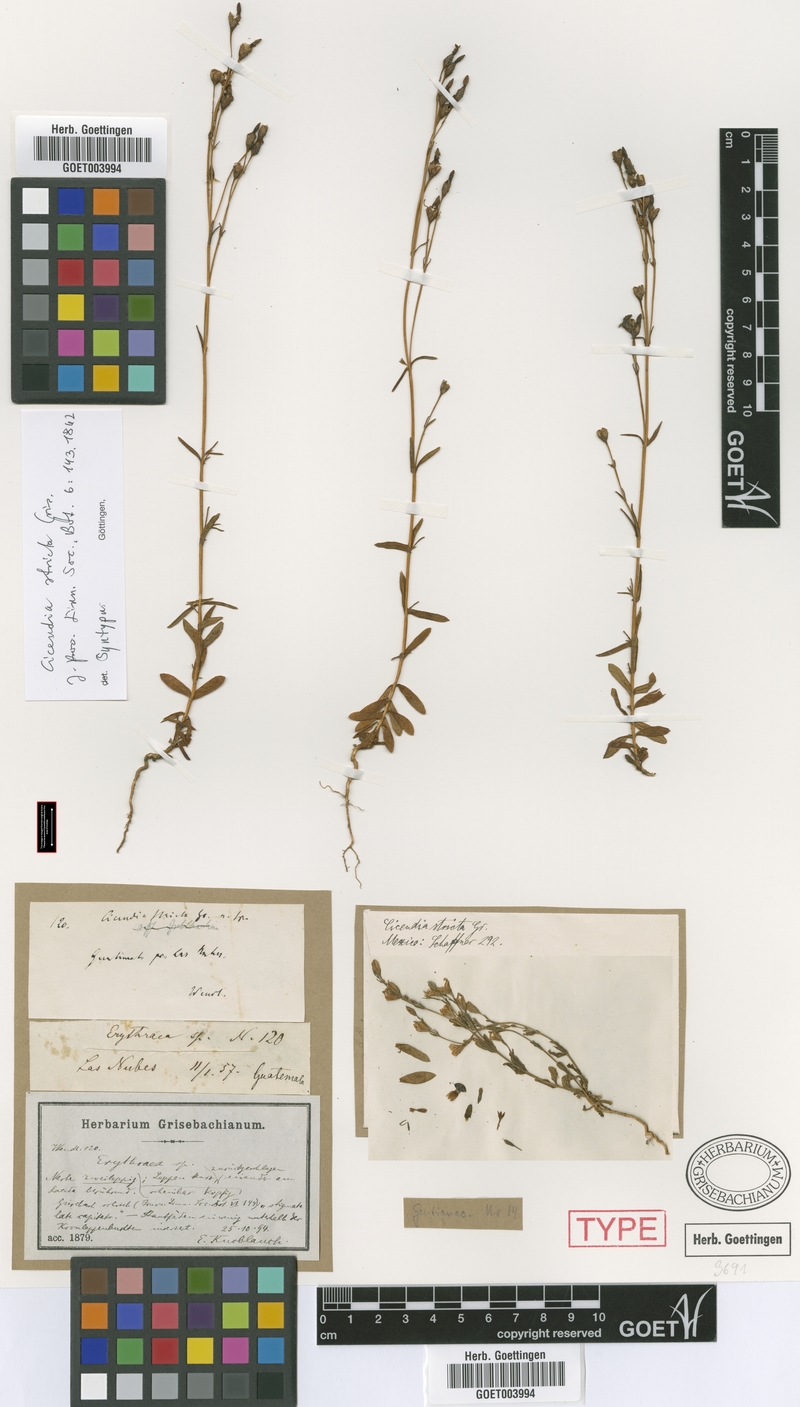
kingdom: Plantae
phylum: Tracheophyta
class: Magnoliopsida
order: Gentianales
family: Gentianaceae
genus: Gyrandra
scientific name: Gyrandra brachycalyx
